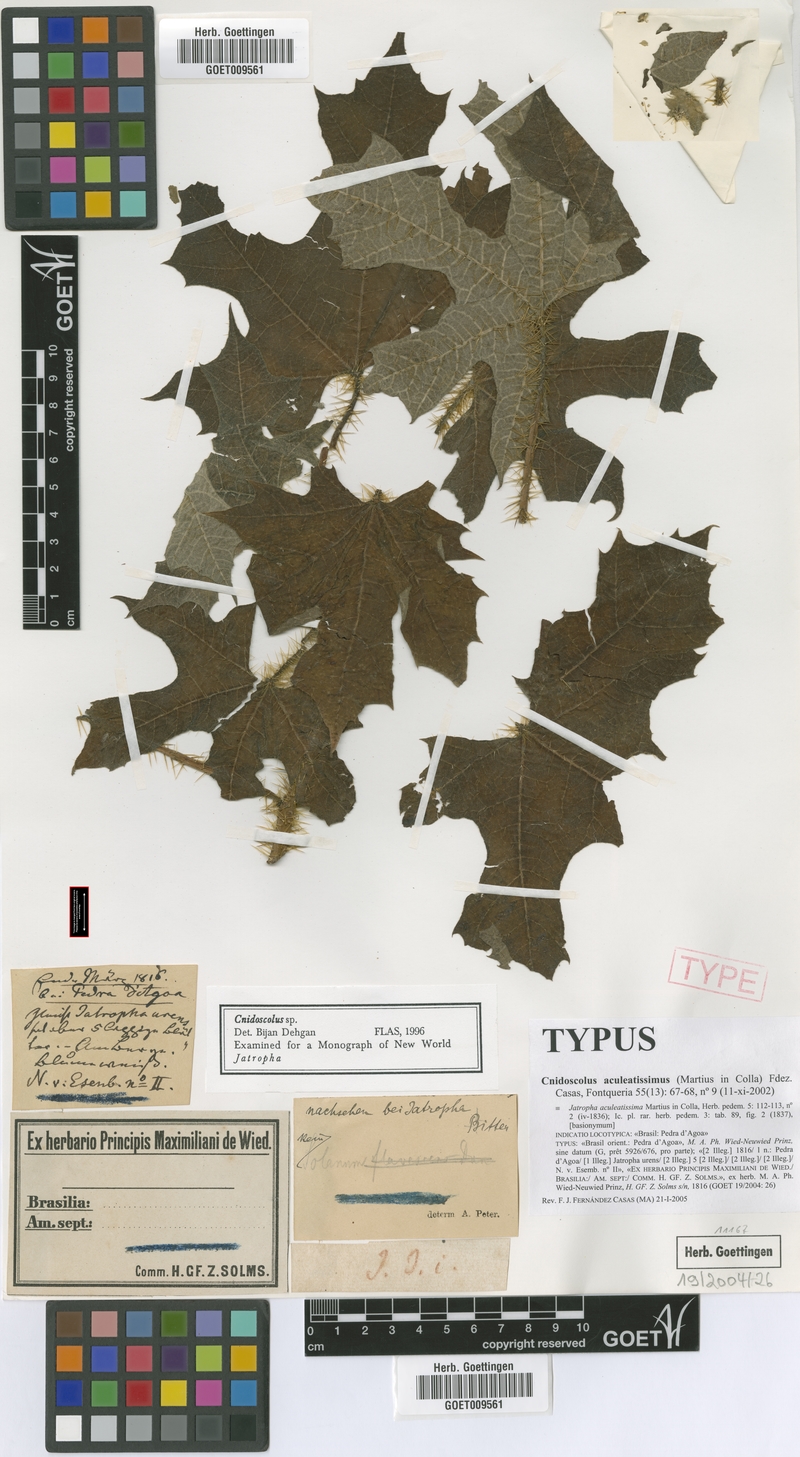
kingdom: Plantae
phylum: Tracheophyta
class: Magnoliopsida
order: Malpighiales
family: Euphorbiaceae
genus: Cnidoscolus
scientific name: Cnidoscolus aculeatissimus
